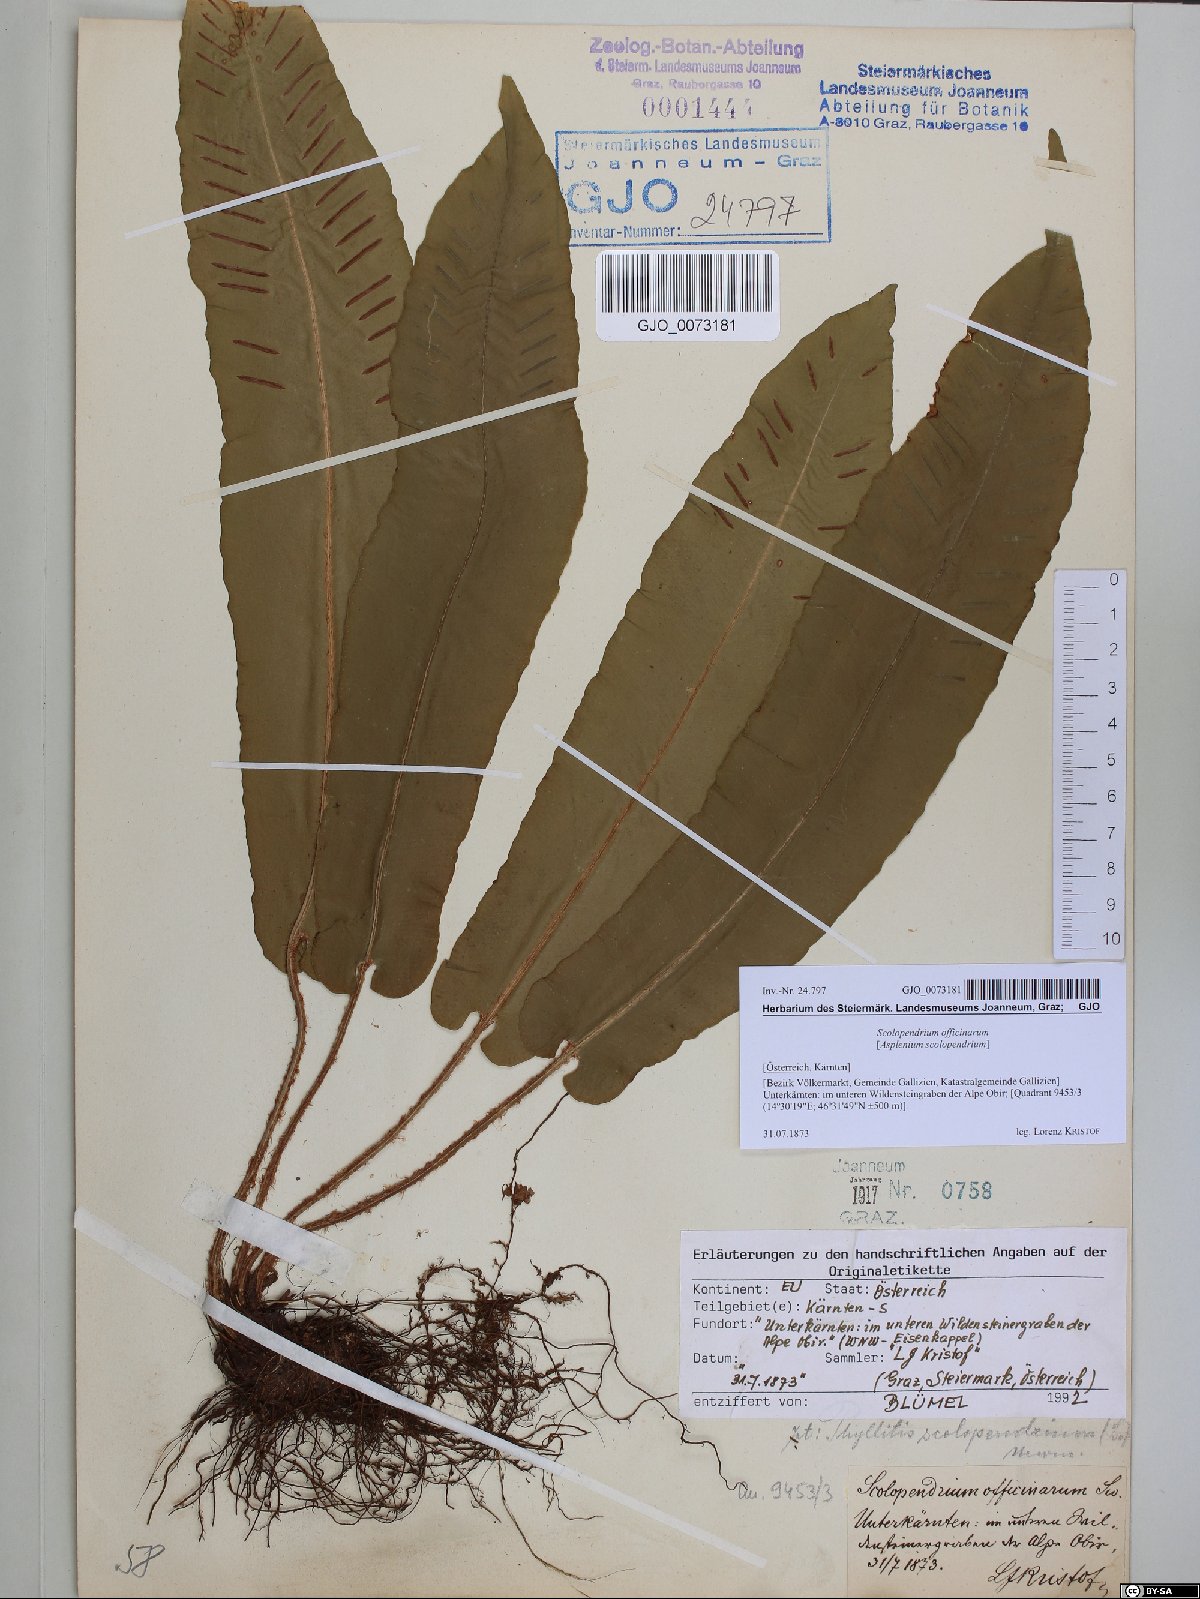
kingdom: Plantae
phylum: Tracheophyta
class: Polypodiopsida
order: Polypodiales
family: Aspleniaceae
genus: Asplenium
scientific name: Asplenium scolopendrium
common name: Hart's-tongue fern
